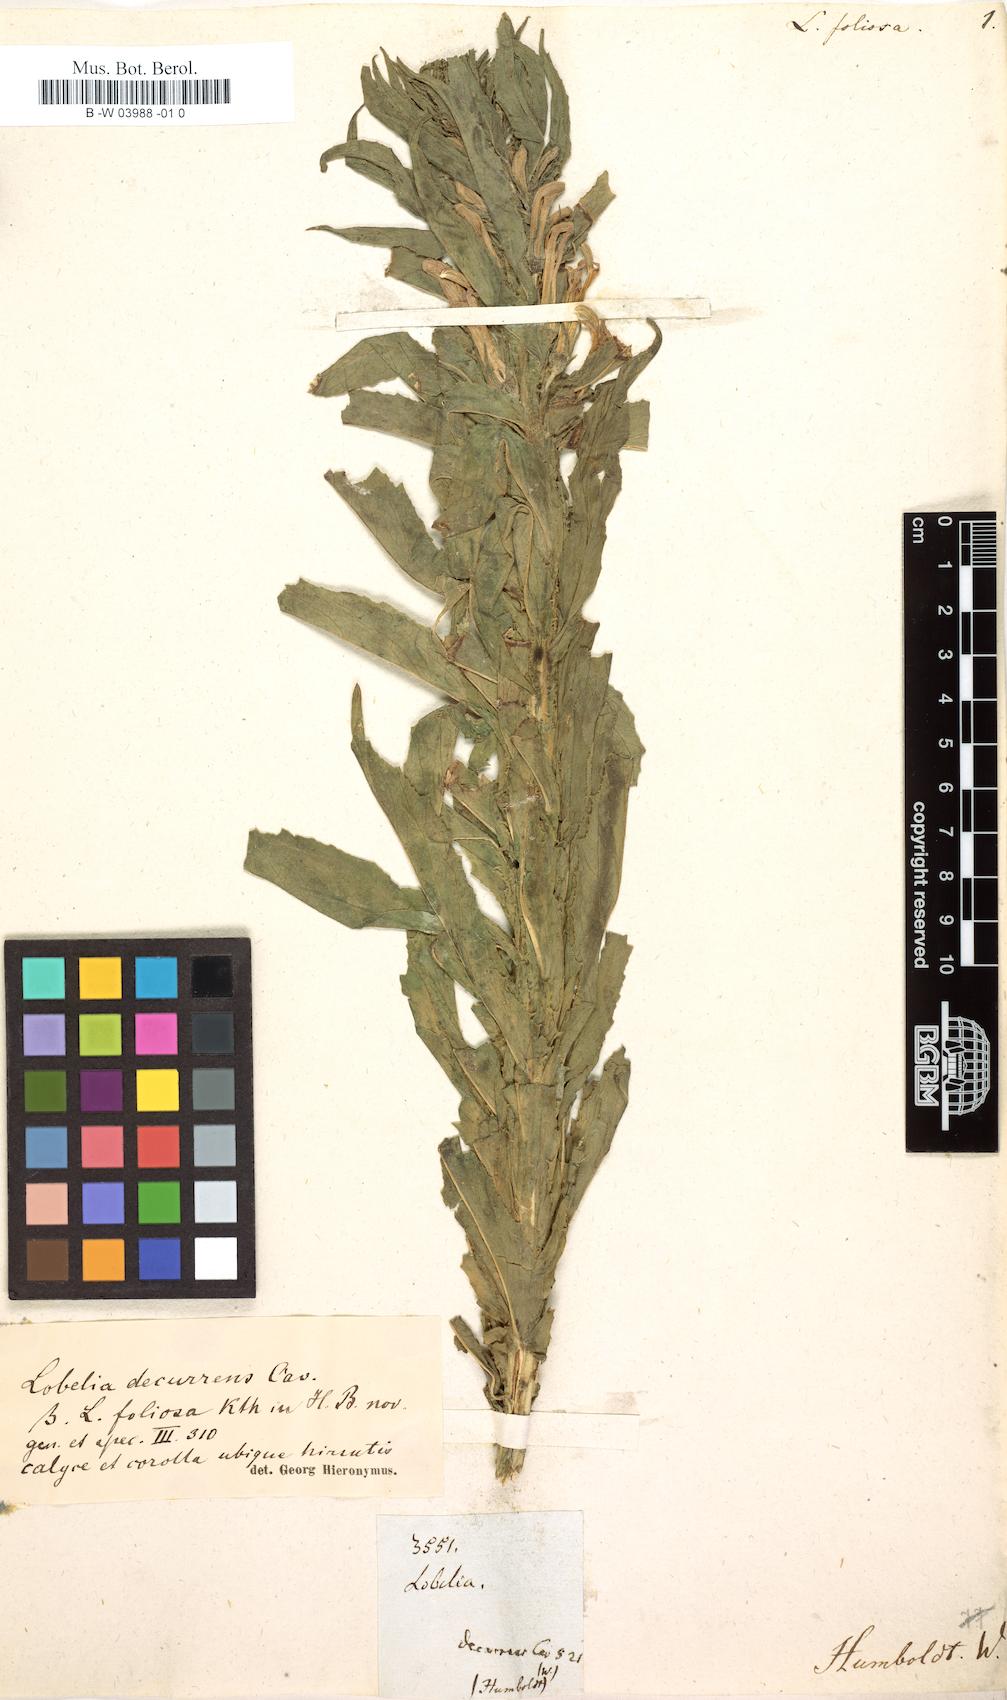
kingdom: Plantae
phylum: Tracheophyta
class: Magnoliopsida
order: Asterales
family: Campanulaceae
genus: Lobelia
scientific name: Lobelia decurrens
